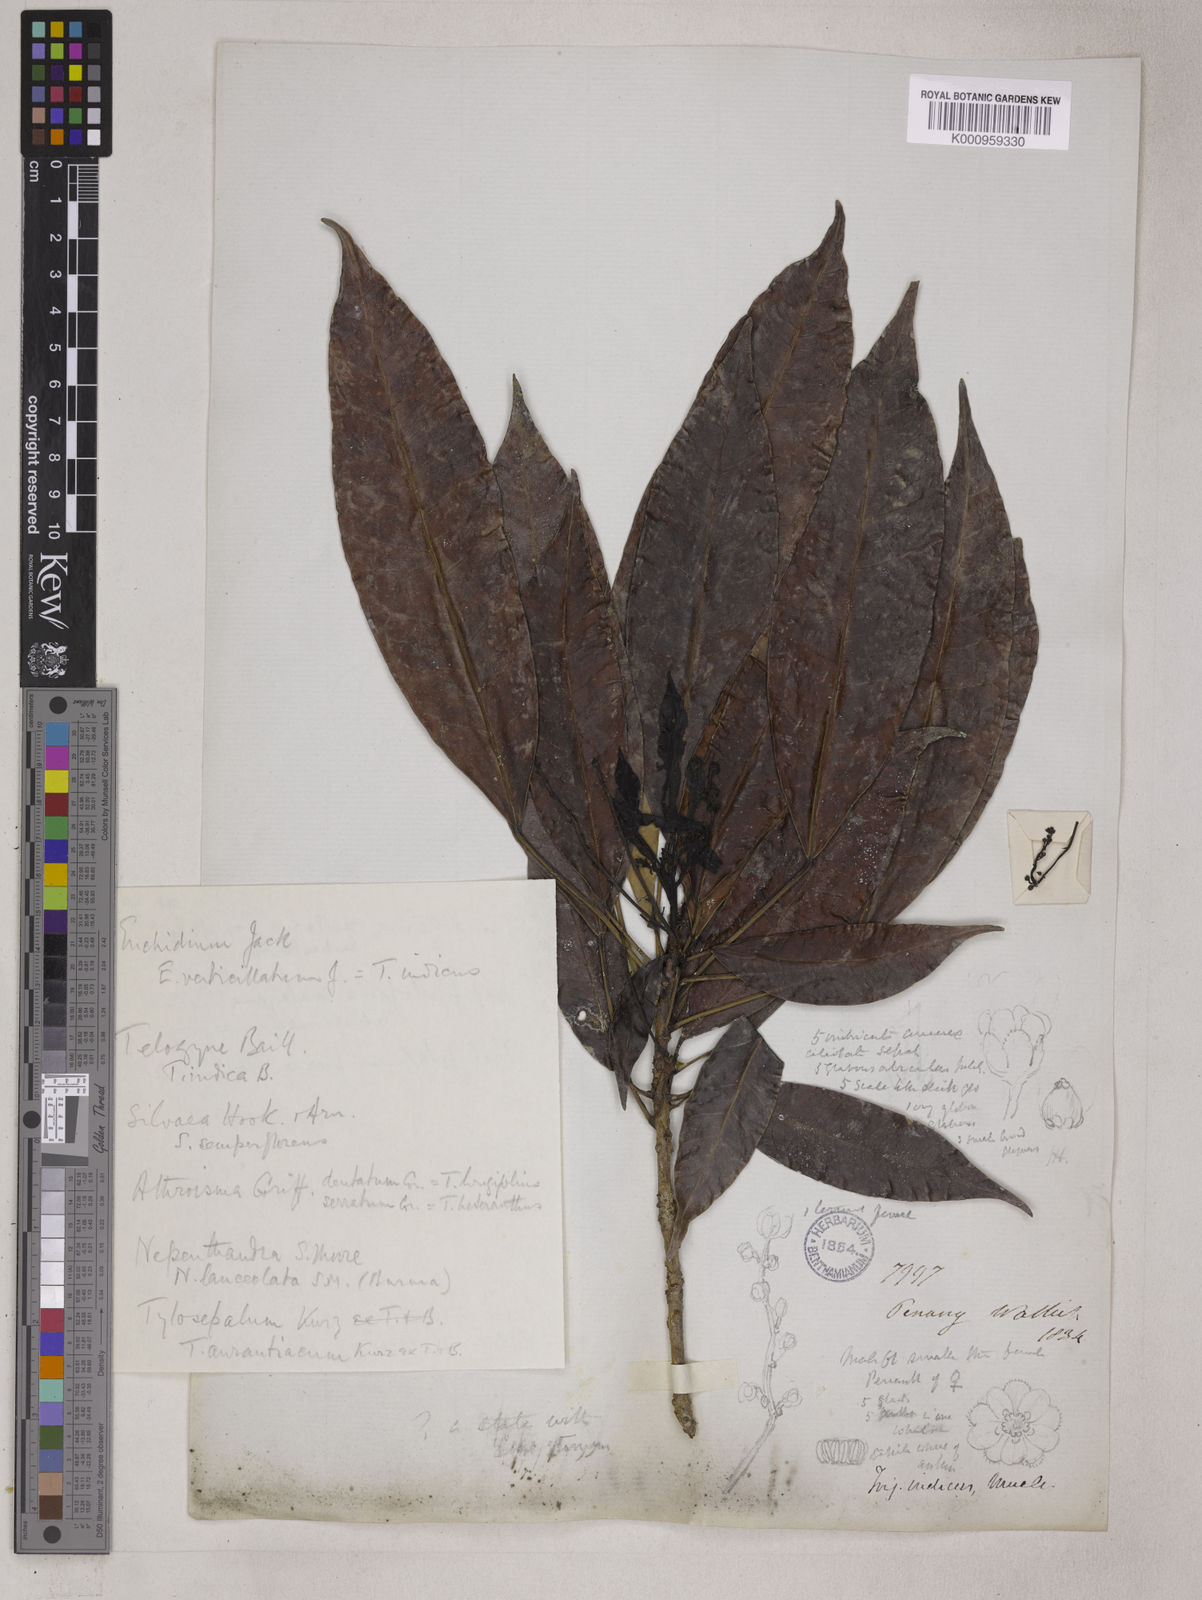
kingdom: Plantae
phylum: Tracheophyta
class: Magnoliopsida
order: Malpighiales
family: Euphorbiaceae
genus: Trigonostemon
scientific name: Trigonostemon verticillatus
